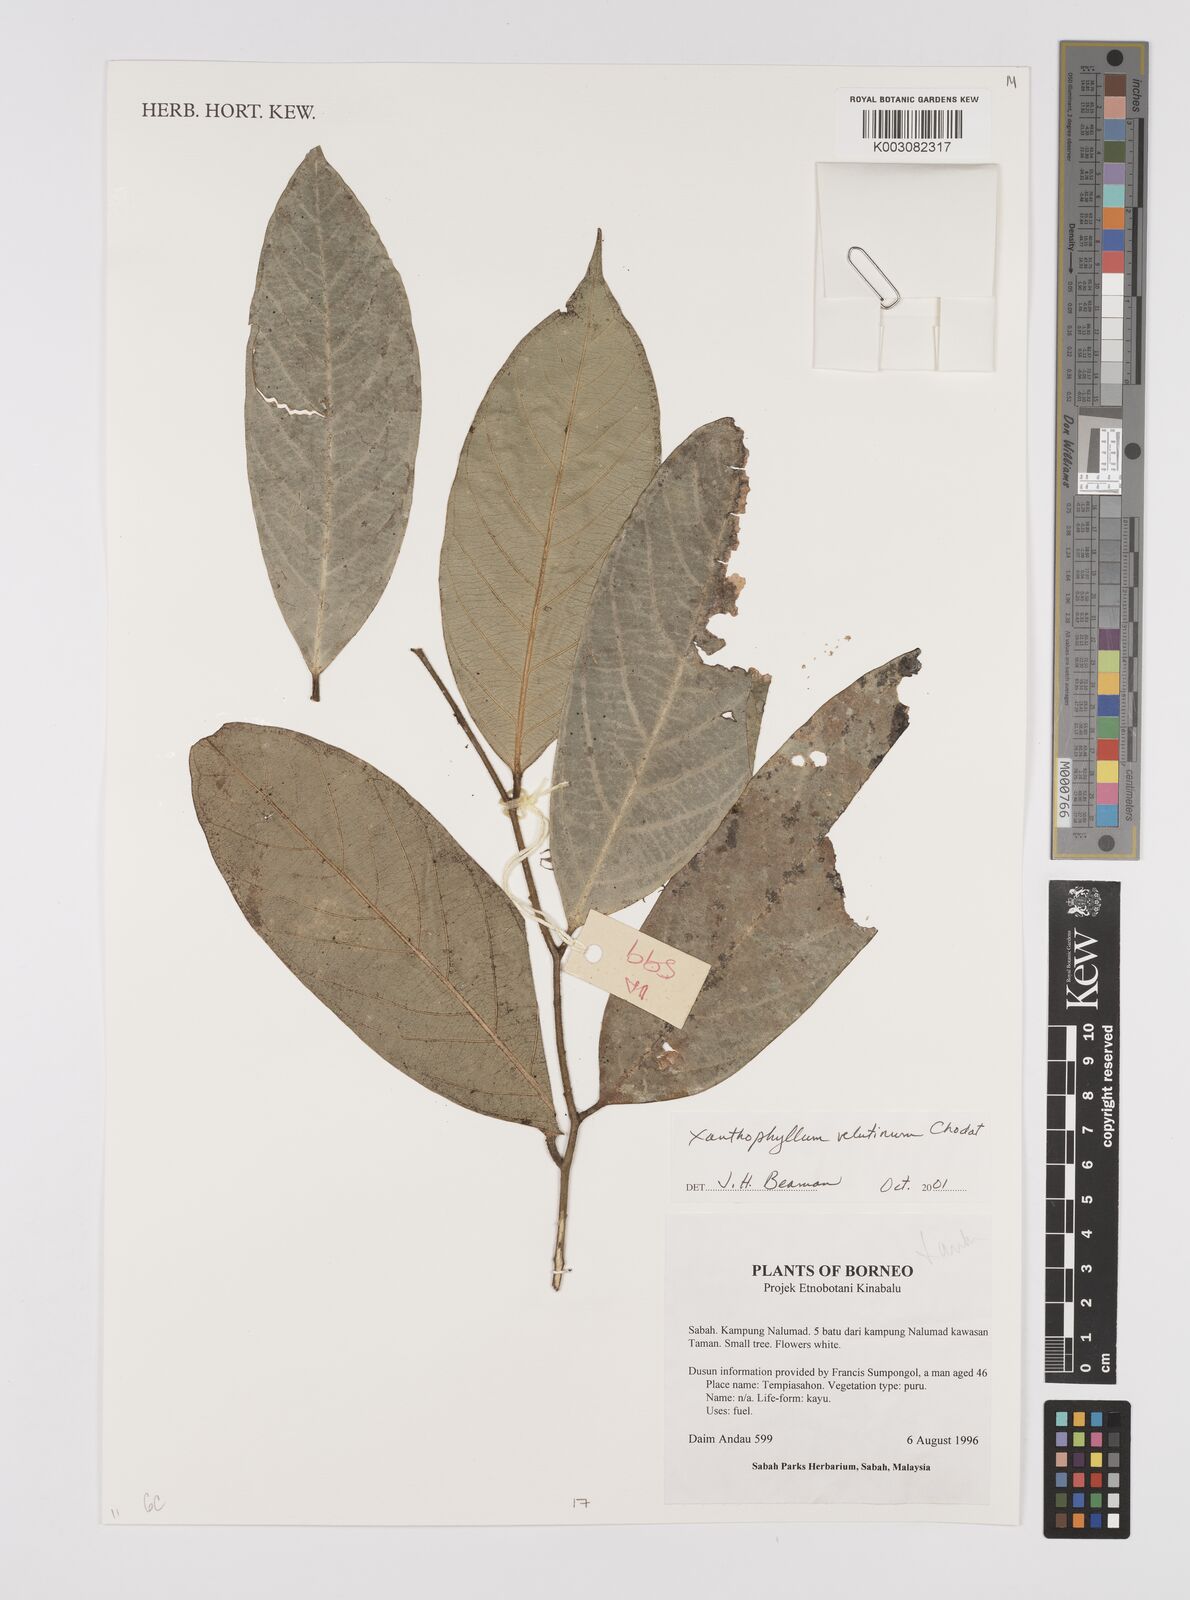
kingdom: Plantae
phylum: Tracheophyta
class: Magnoliopsida
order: Fabales
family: Polygalaceae
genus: Xanthophyllum
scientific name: Xanthophyllum velutinum
